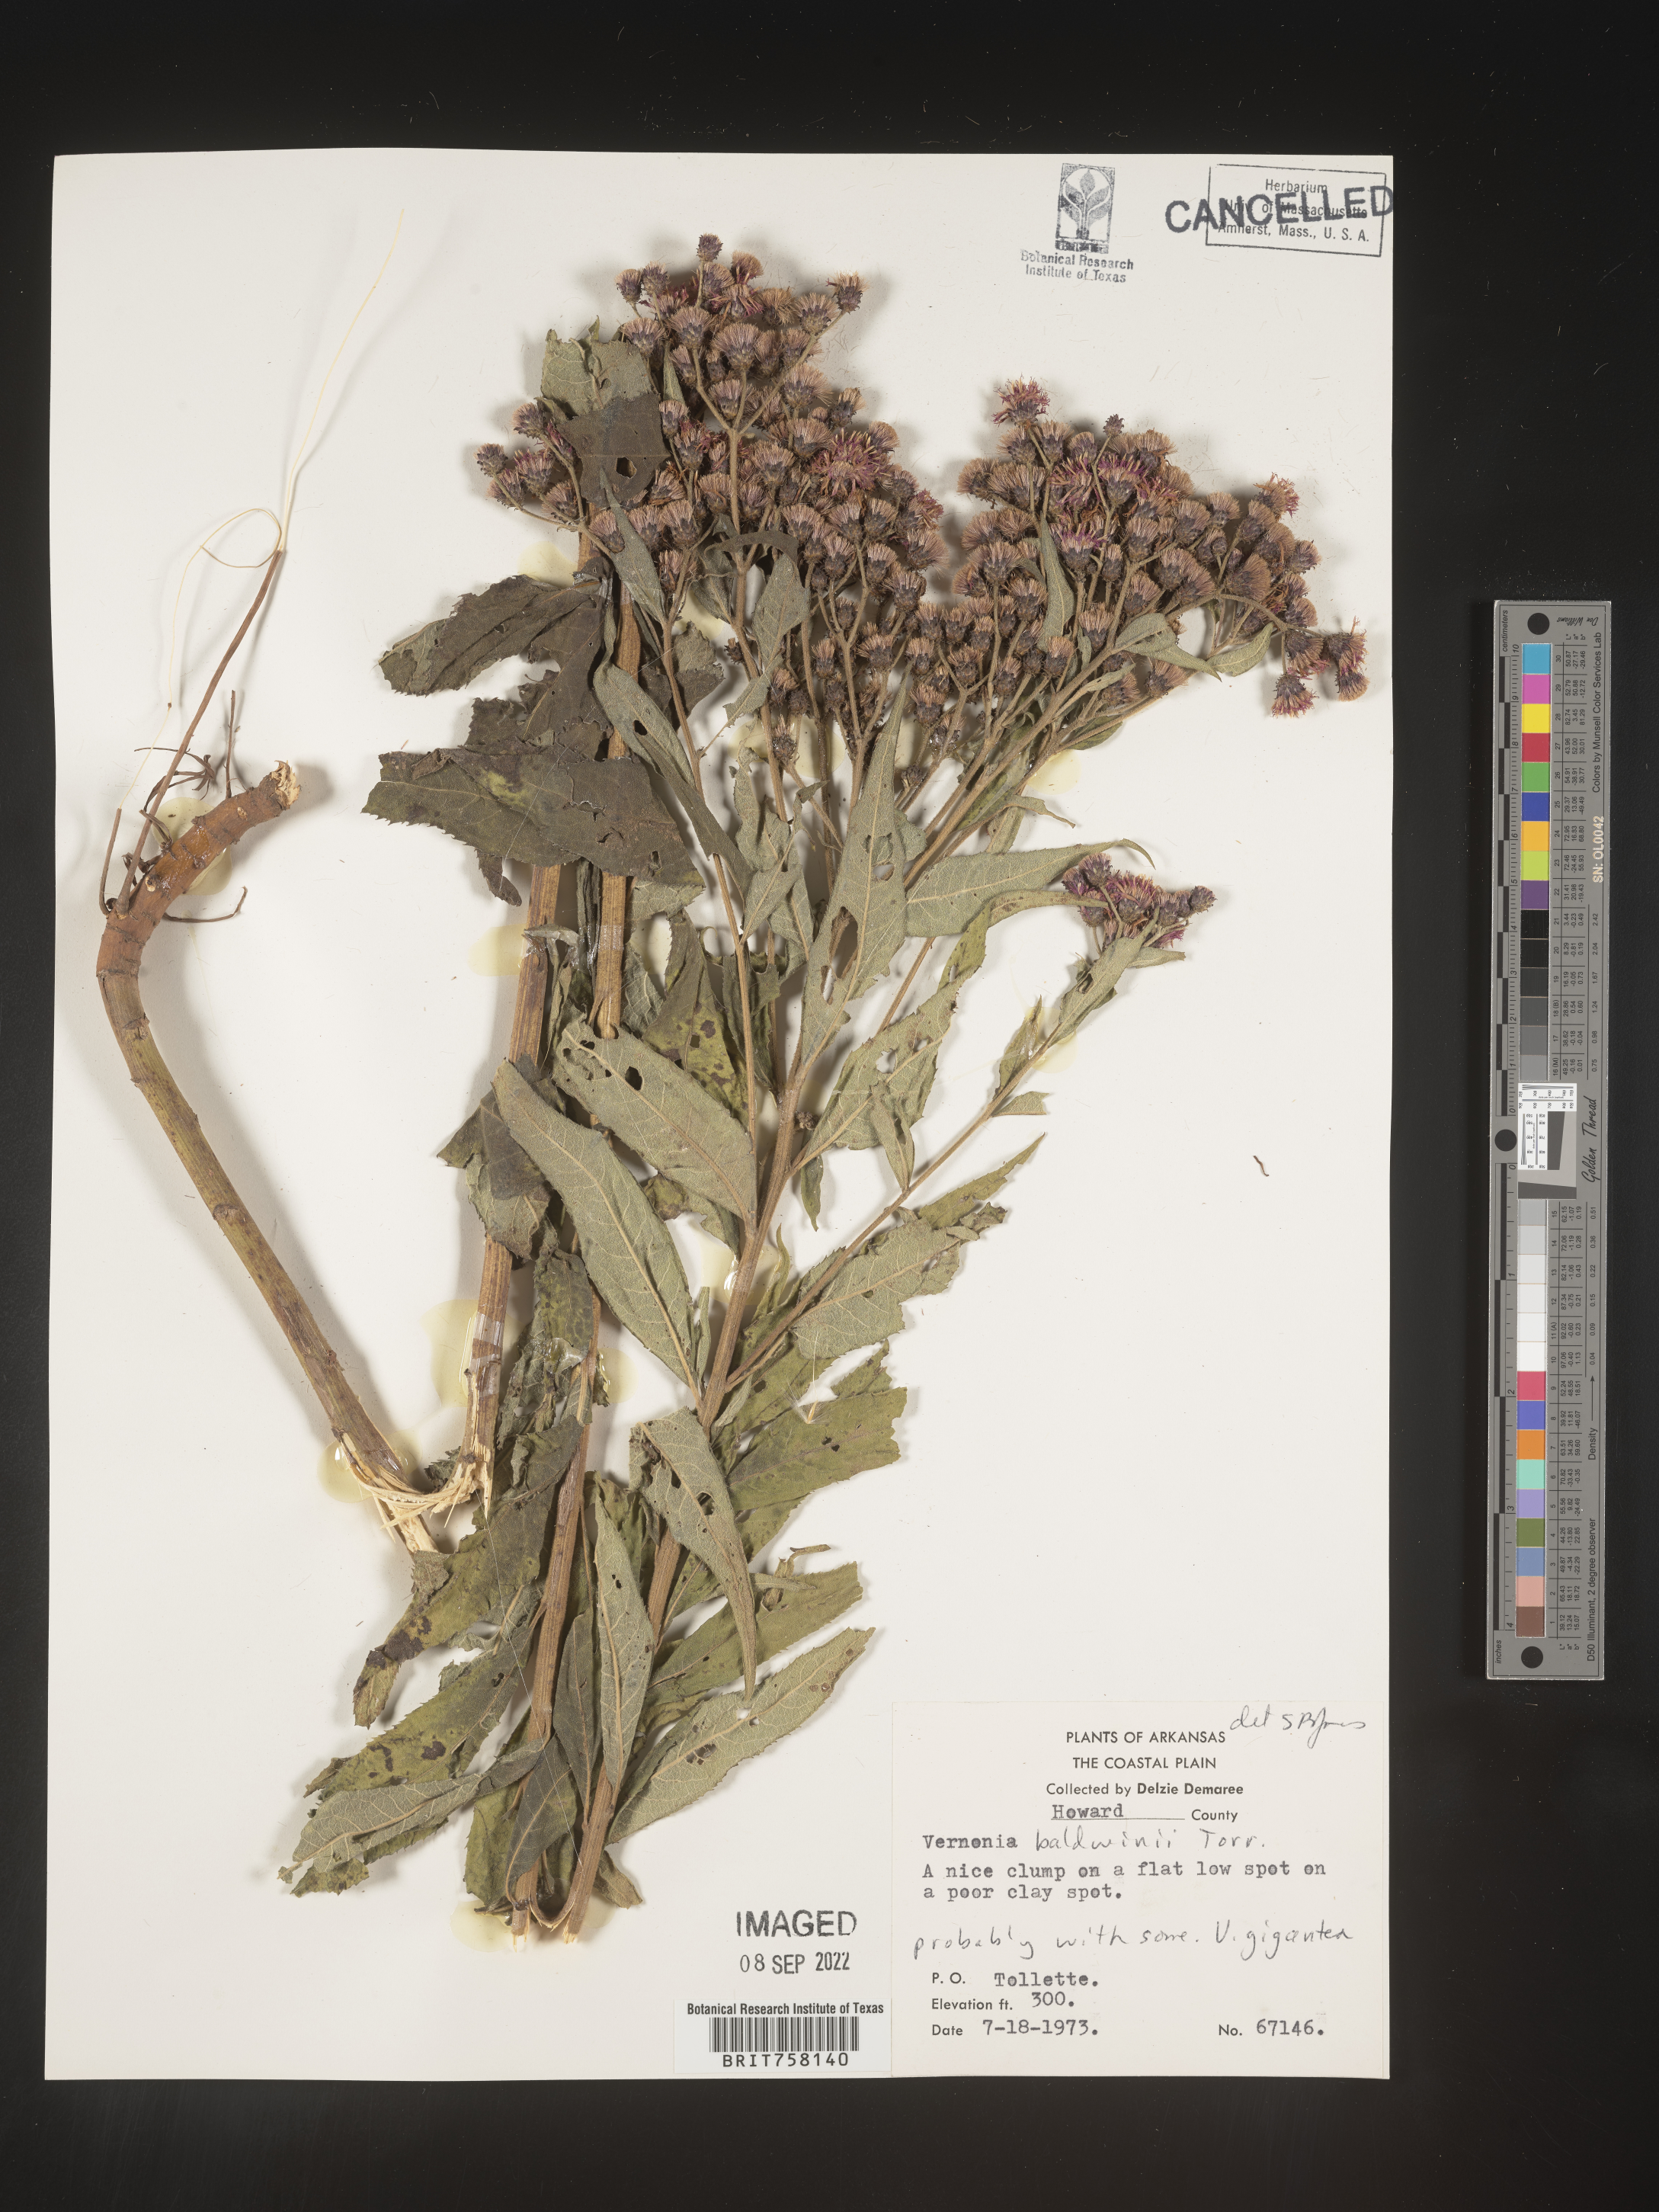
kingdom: Plantae
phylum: Tracheophyta
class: Magnoliopsida
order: Asterales
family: Asteraceae
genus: Vernonia
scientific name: Vernonia baldwinii
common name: Western ironweed
